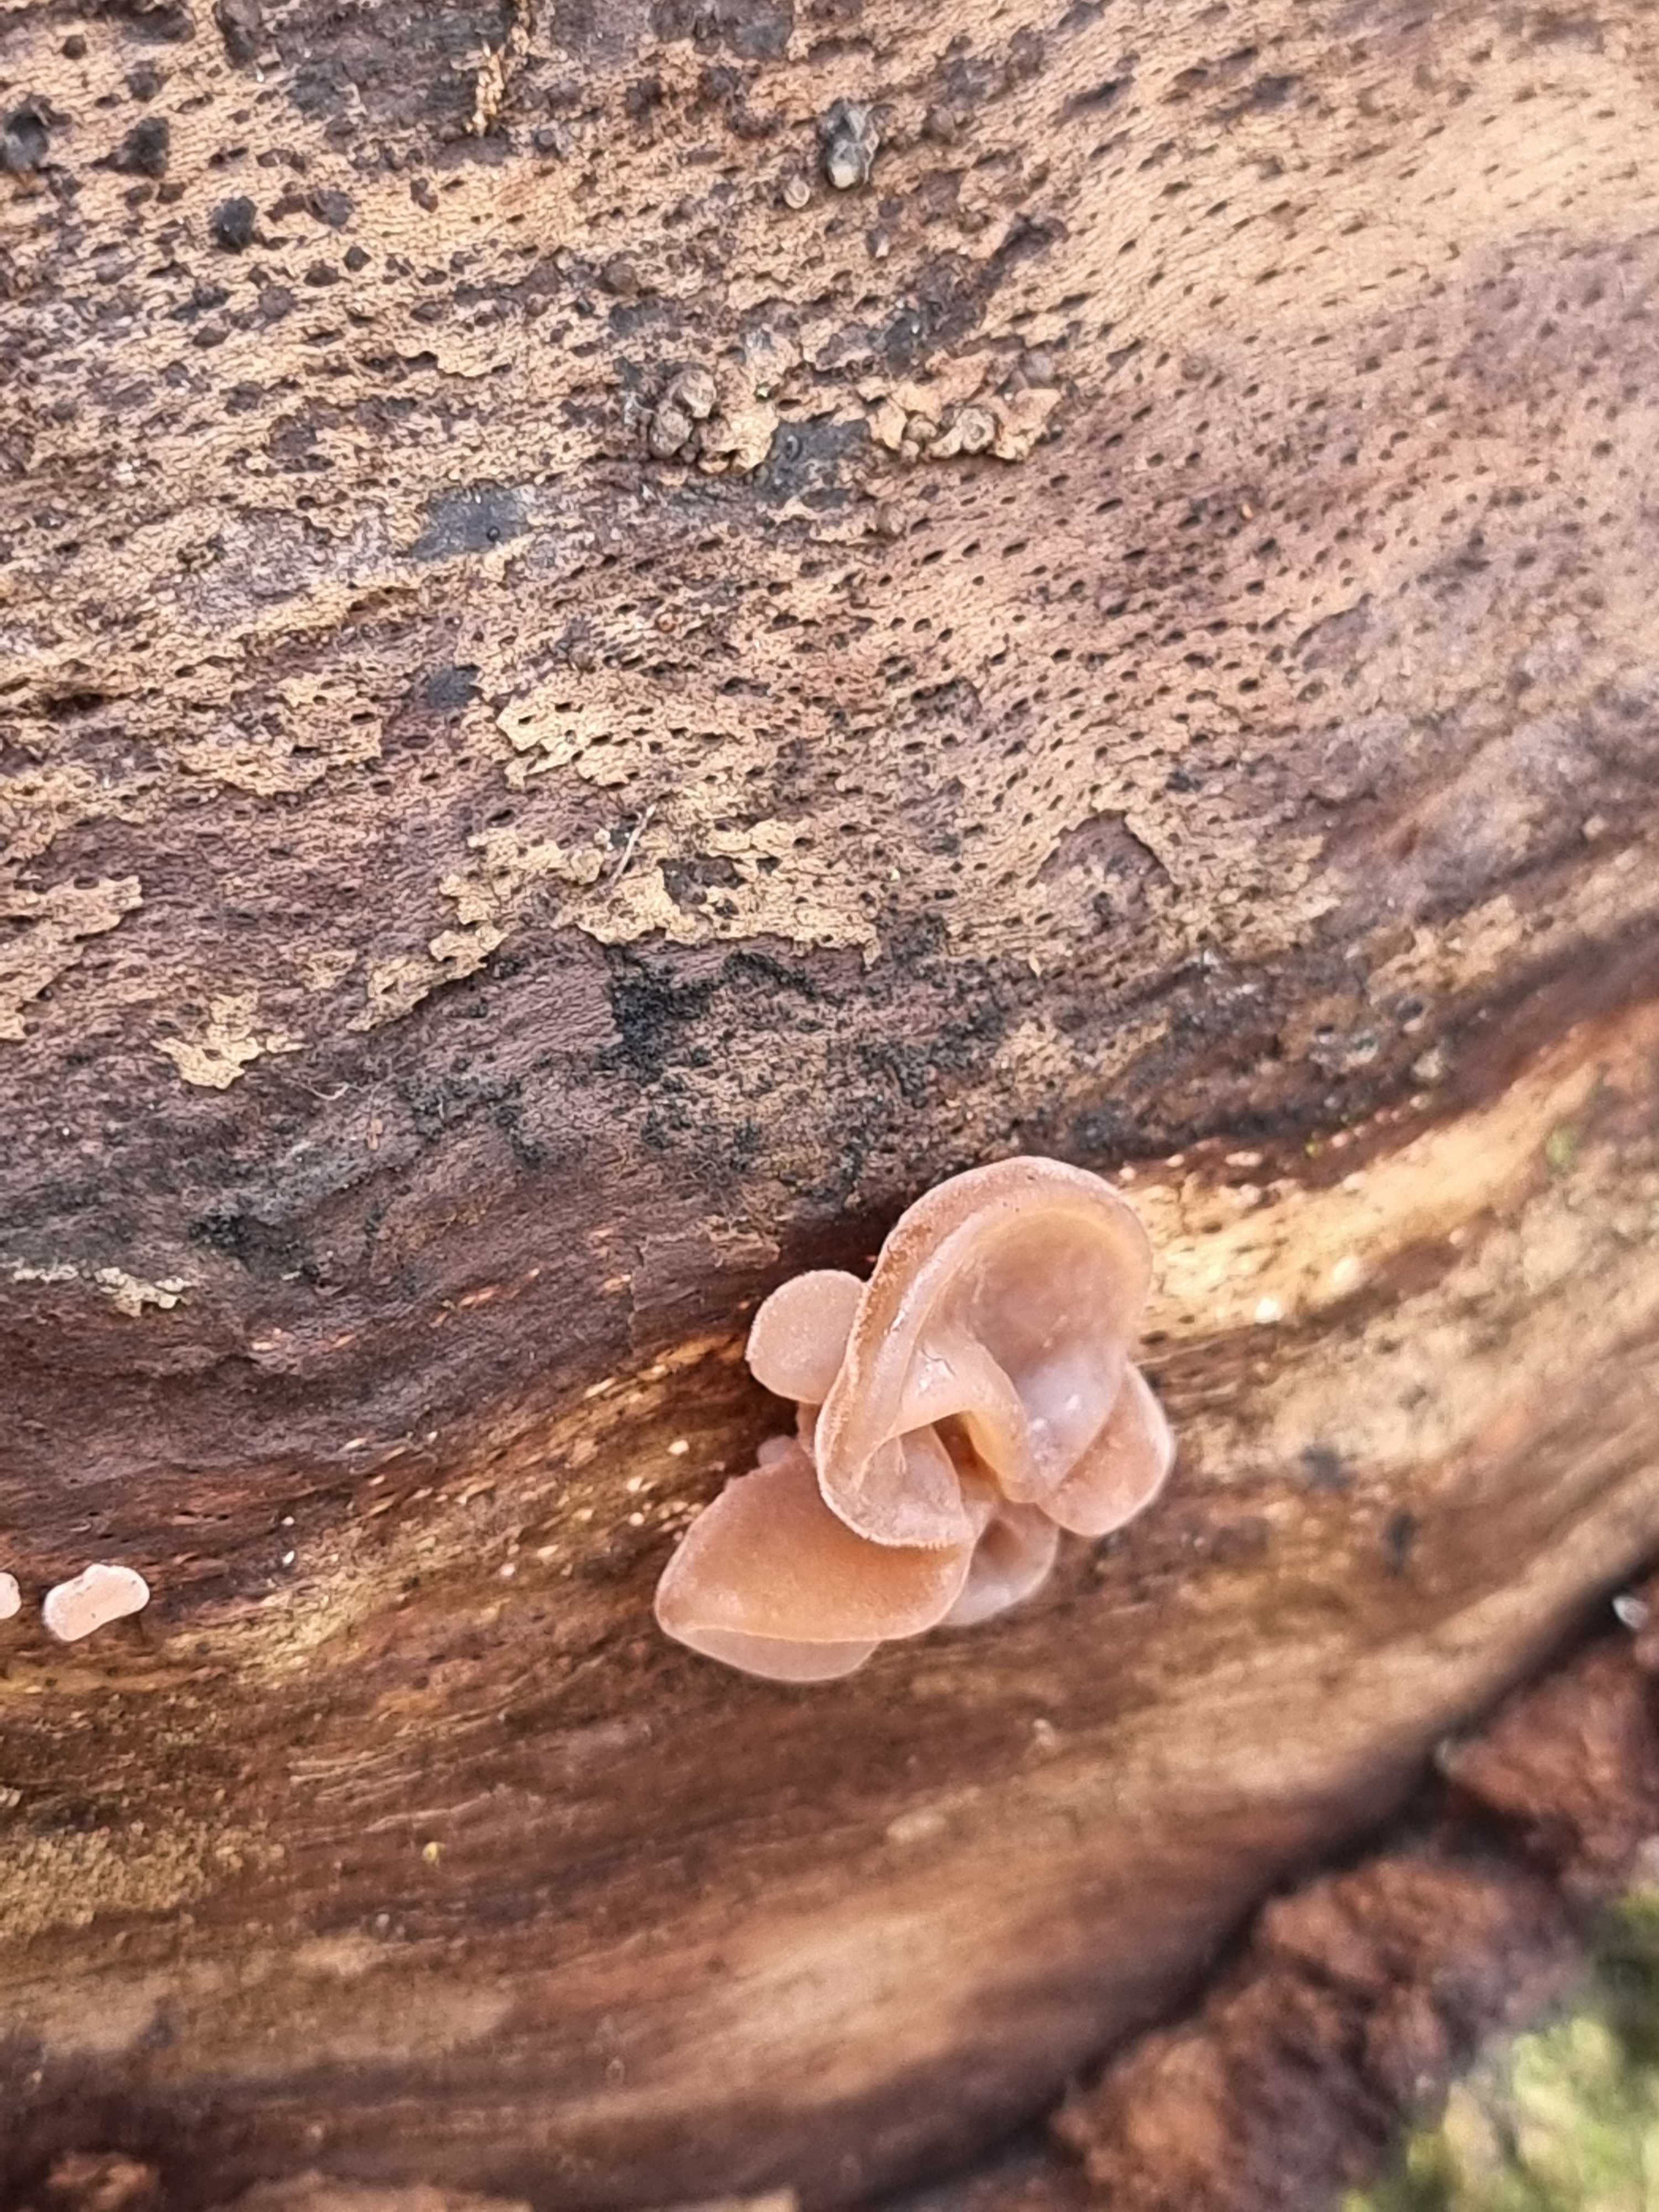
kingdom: Fungi
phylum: Basidiomycota
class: Agaricomycetes
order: Auriculariales
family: Auriculariaceae
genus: Auricularia
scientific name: Auricularia auricula-judae
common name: almindelig judasøre
